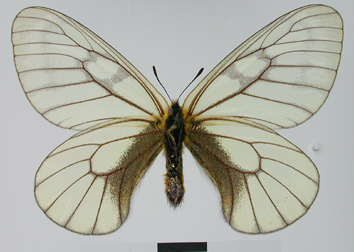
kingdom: Animalia
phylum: Arthropoda
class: Insecta
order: Lepidoptera
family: Papilionidae
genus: Parnassius
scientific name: Parnassius stubbendorfii
